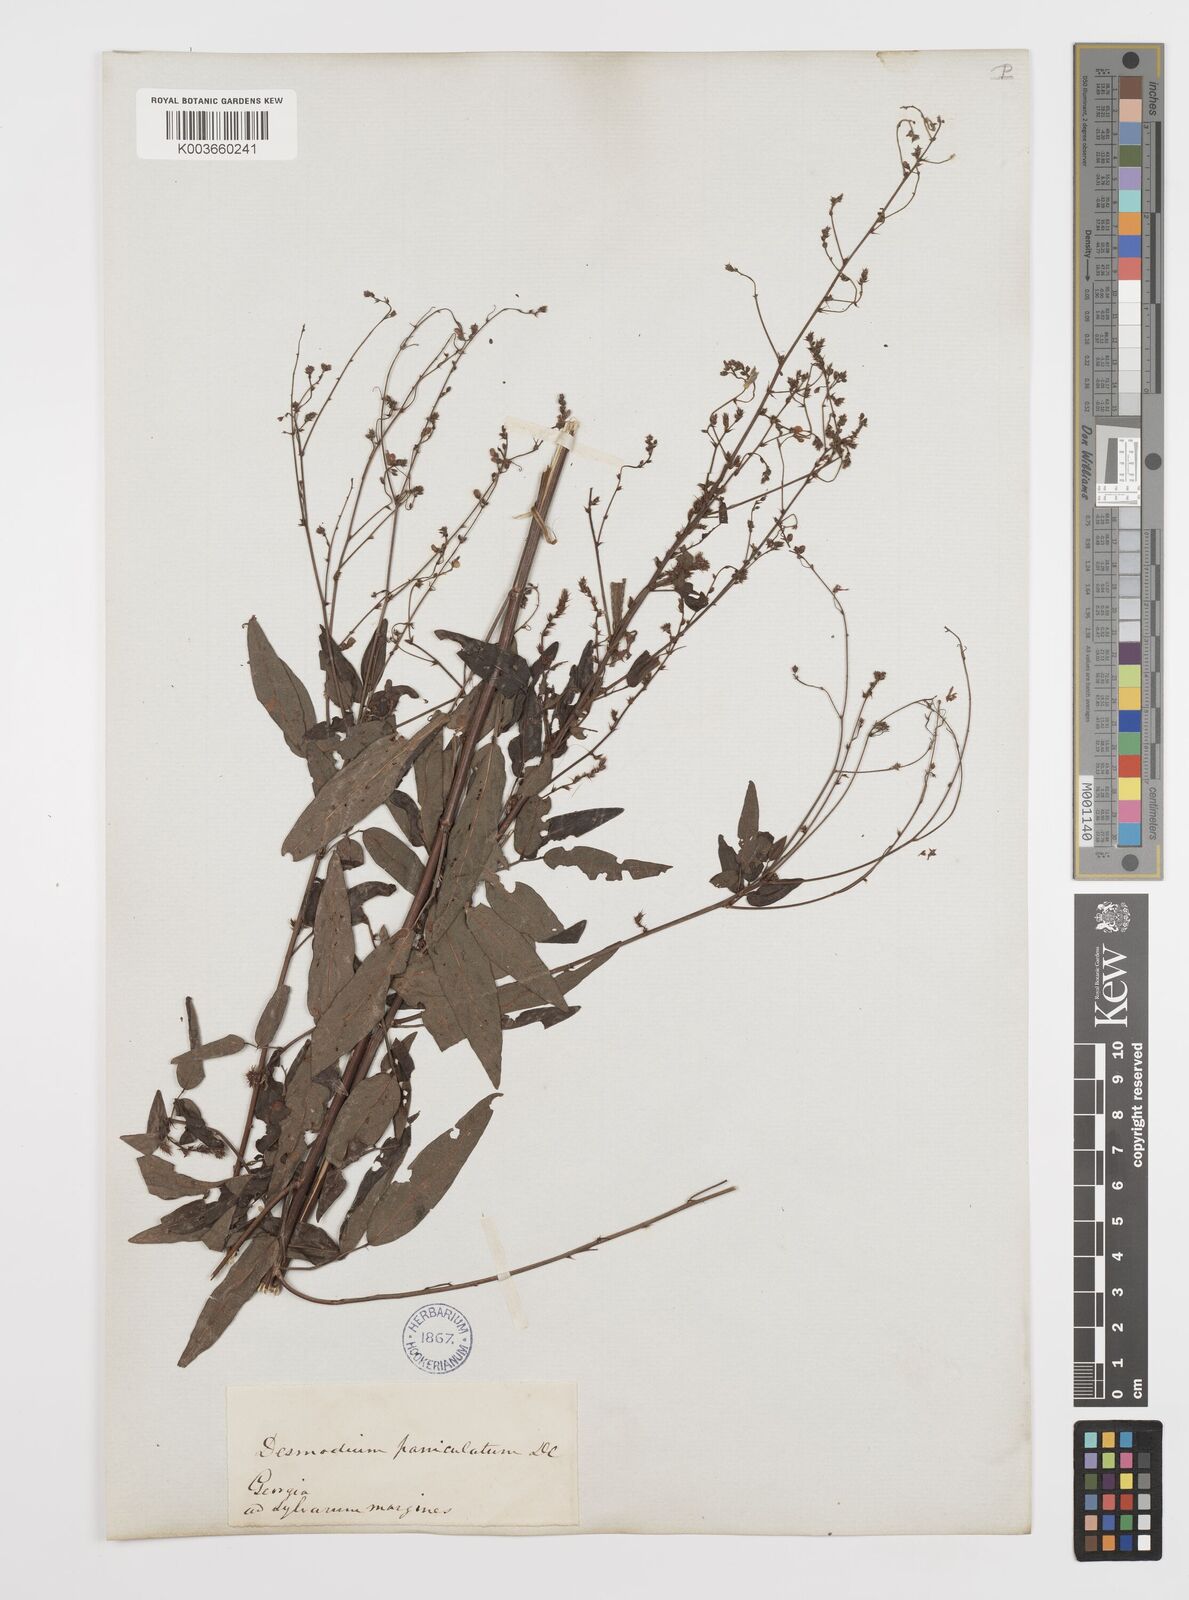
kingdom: Plantae
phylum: Tracheophyta
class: Magnoliopsida
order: Fabales
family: Fabaceae
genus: Desmodium
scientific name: Desmodium paniculatum
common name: Panicled tick-clover
